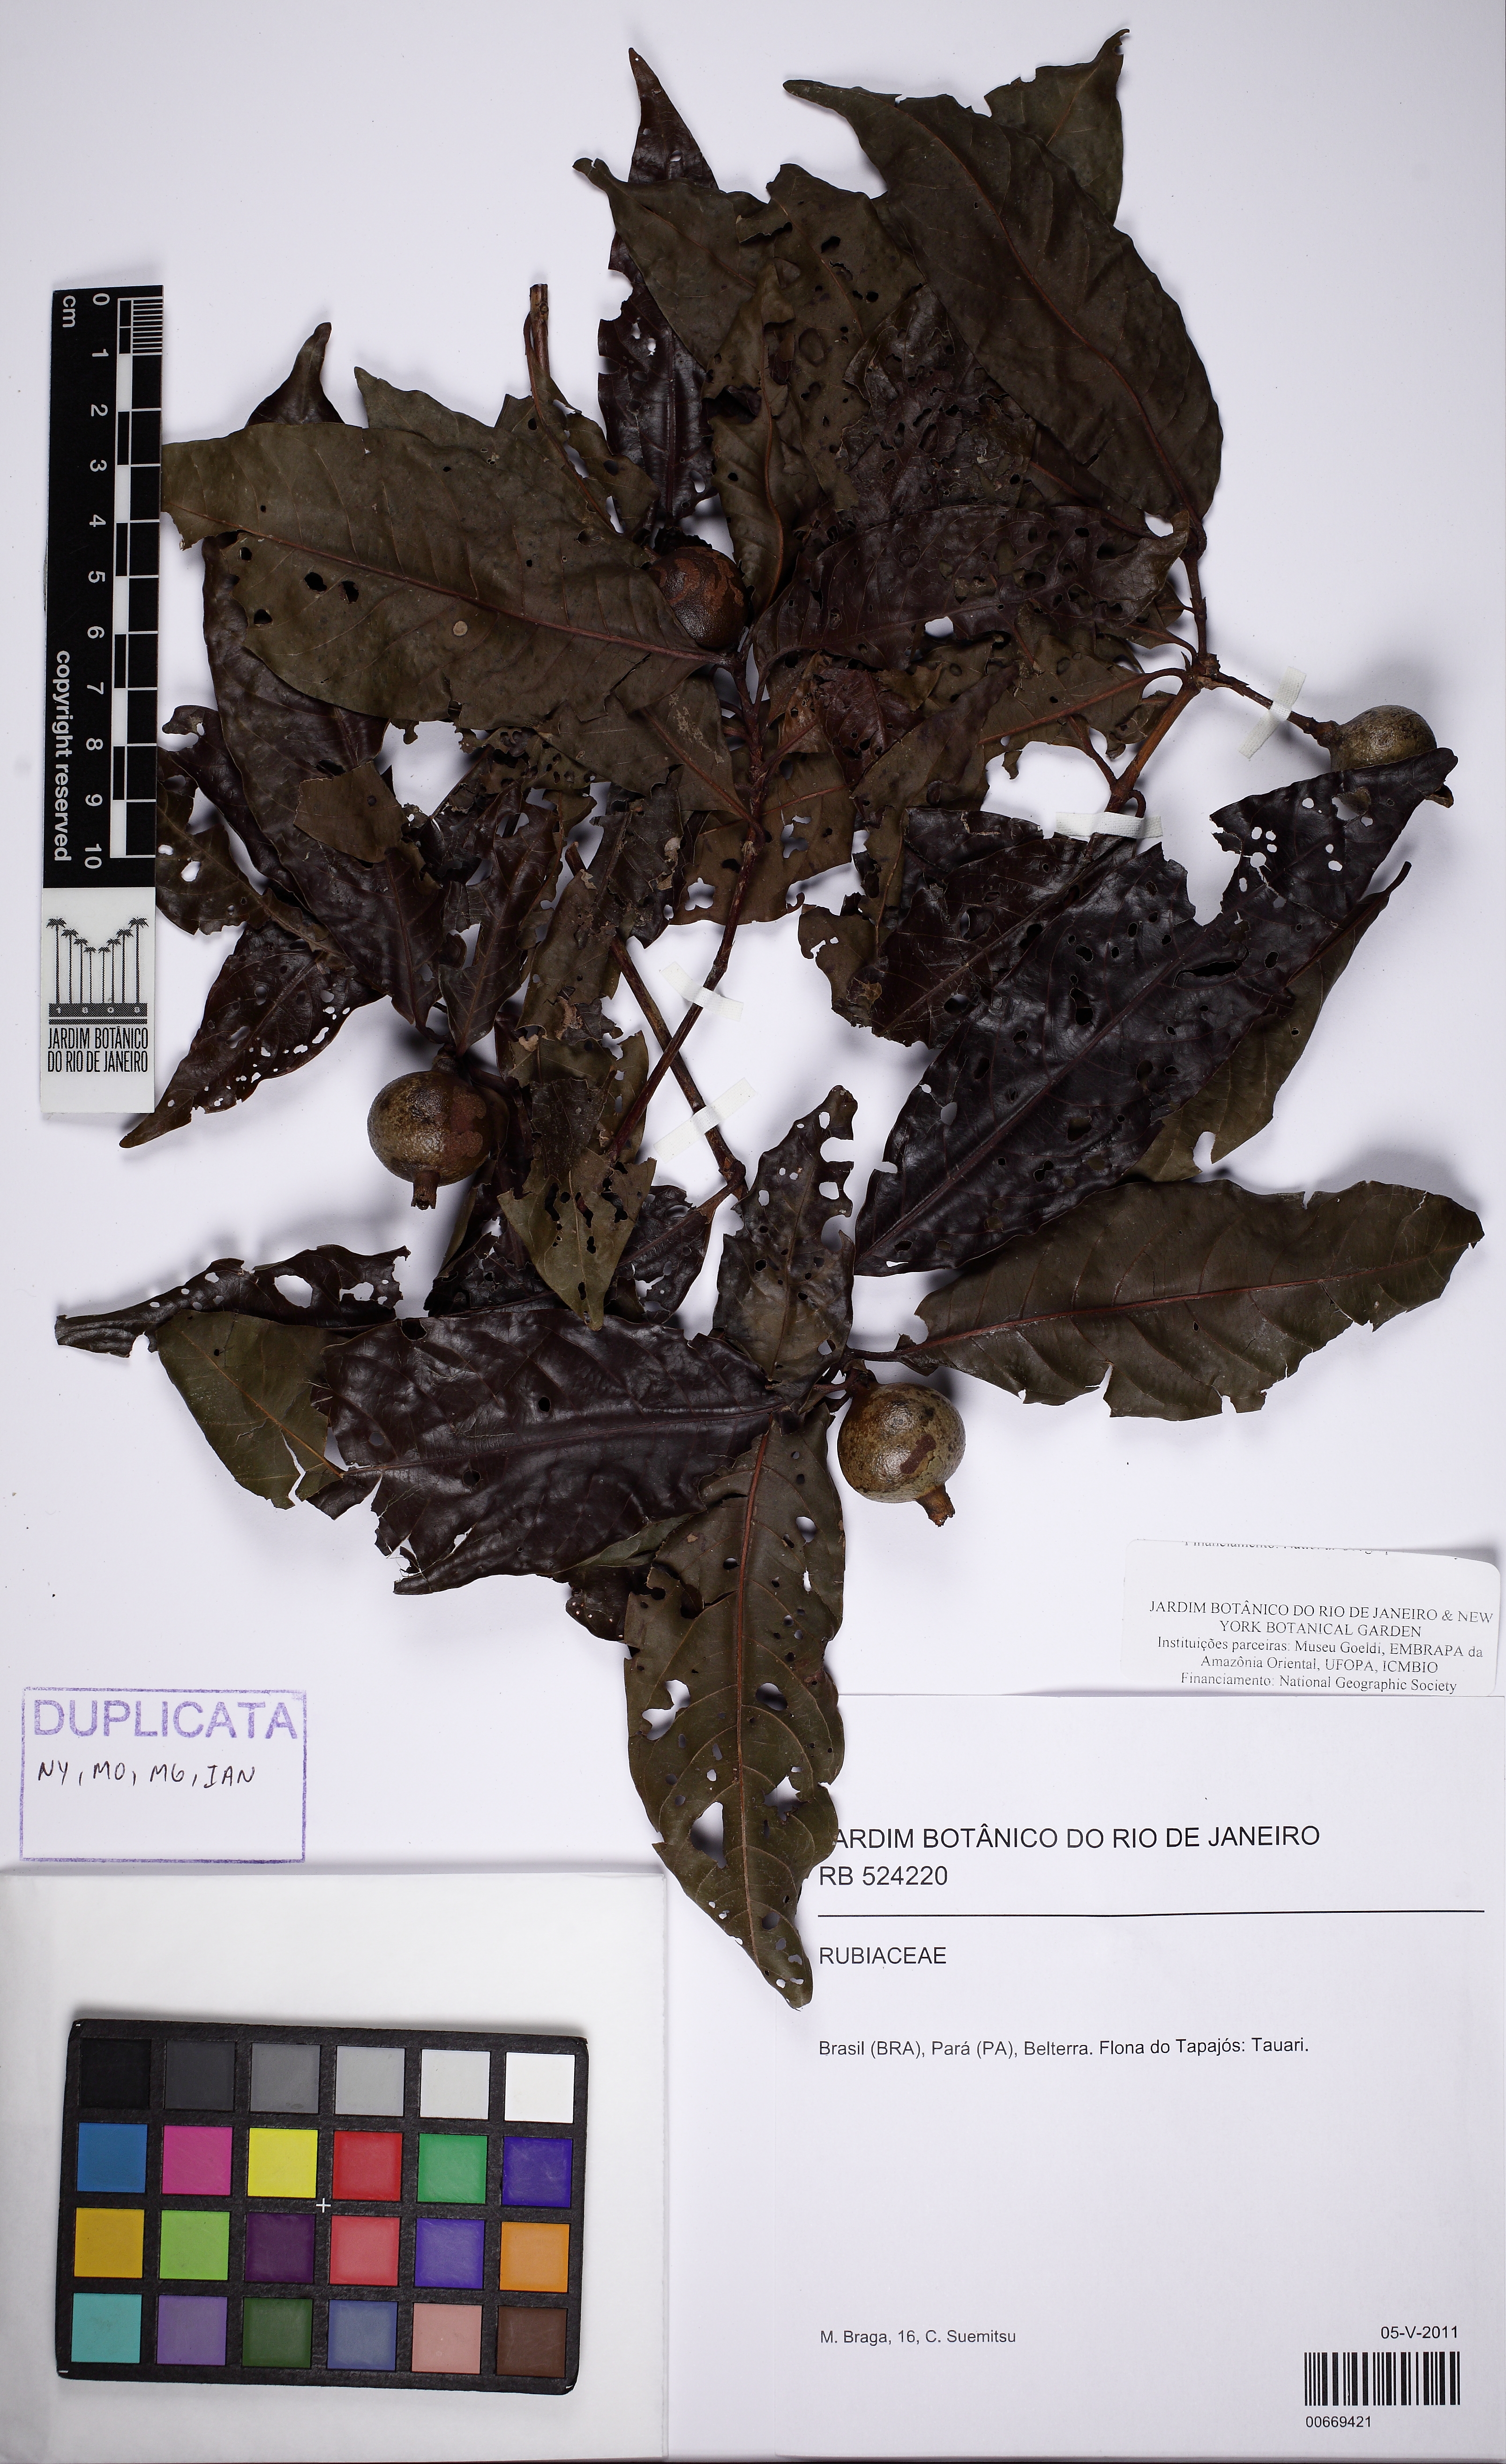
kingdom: Plantae
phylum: Tracheophyta
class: Magnoliopsida
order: Gentianales
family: Rubiaceae
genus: Alibertia
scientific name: Alibertia edulis
